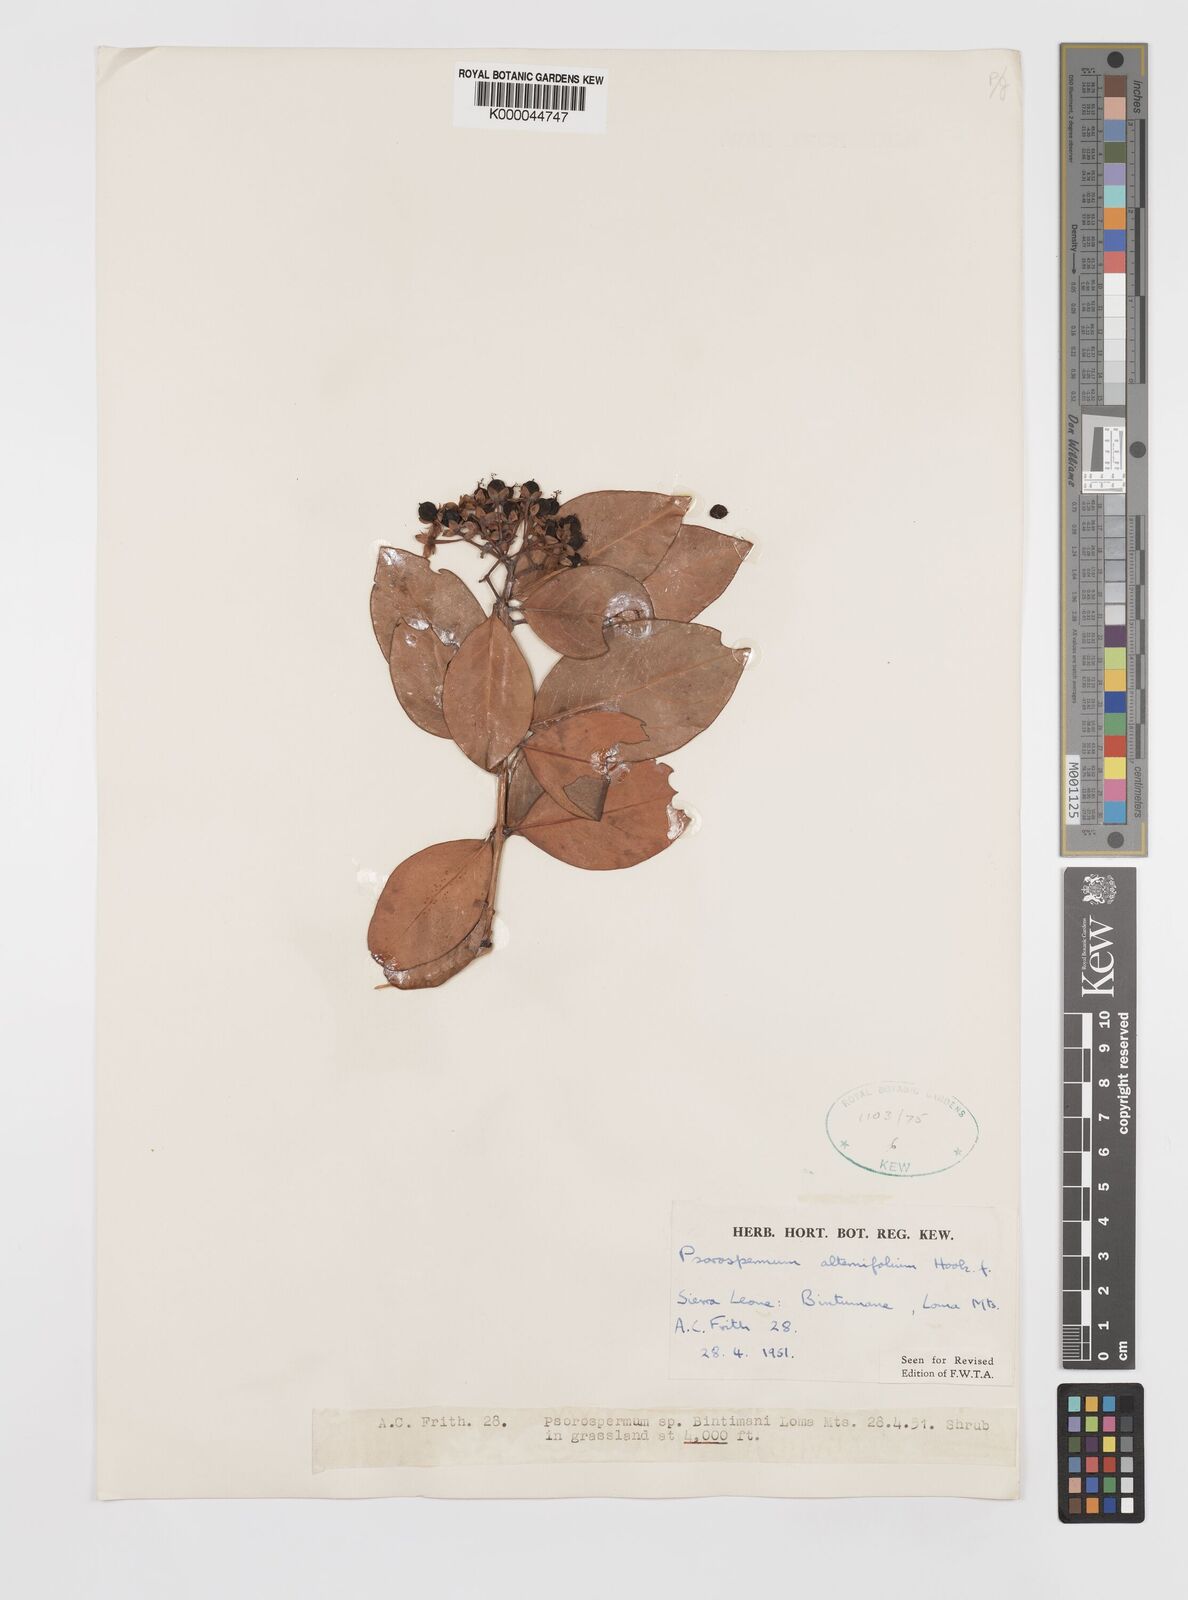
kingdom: Plantae
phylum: Tracheophyta
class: Magnoliopsida
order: Malpighiales
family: Hypericaceae
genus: Psorospermum
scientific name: Psorospermum alternifolium
